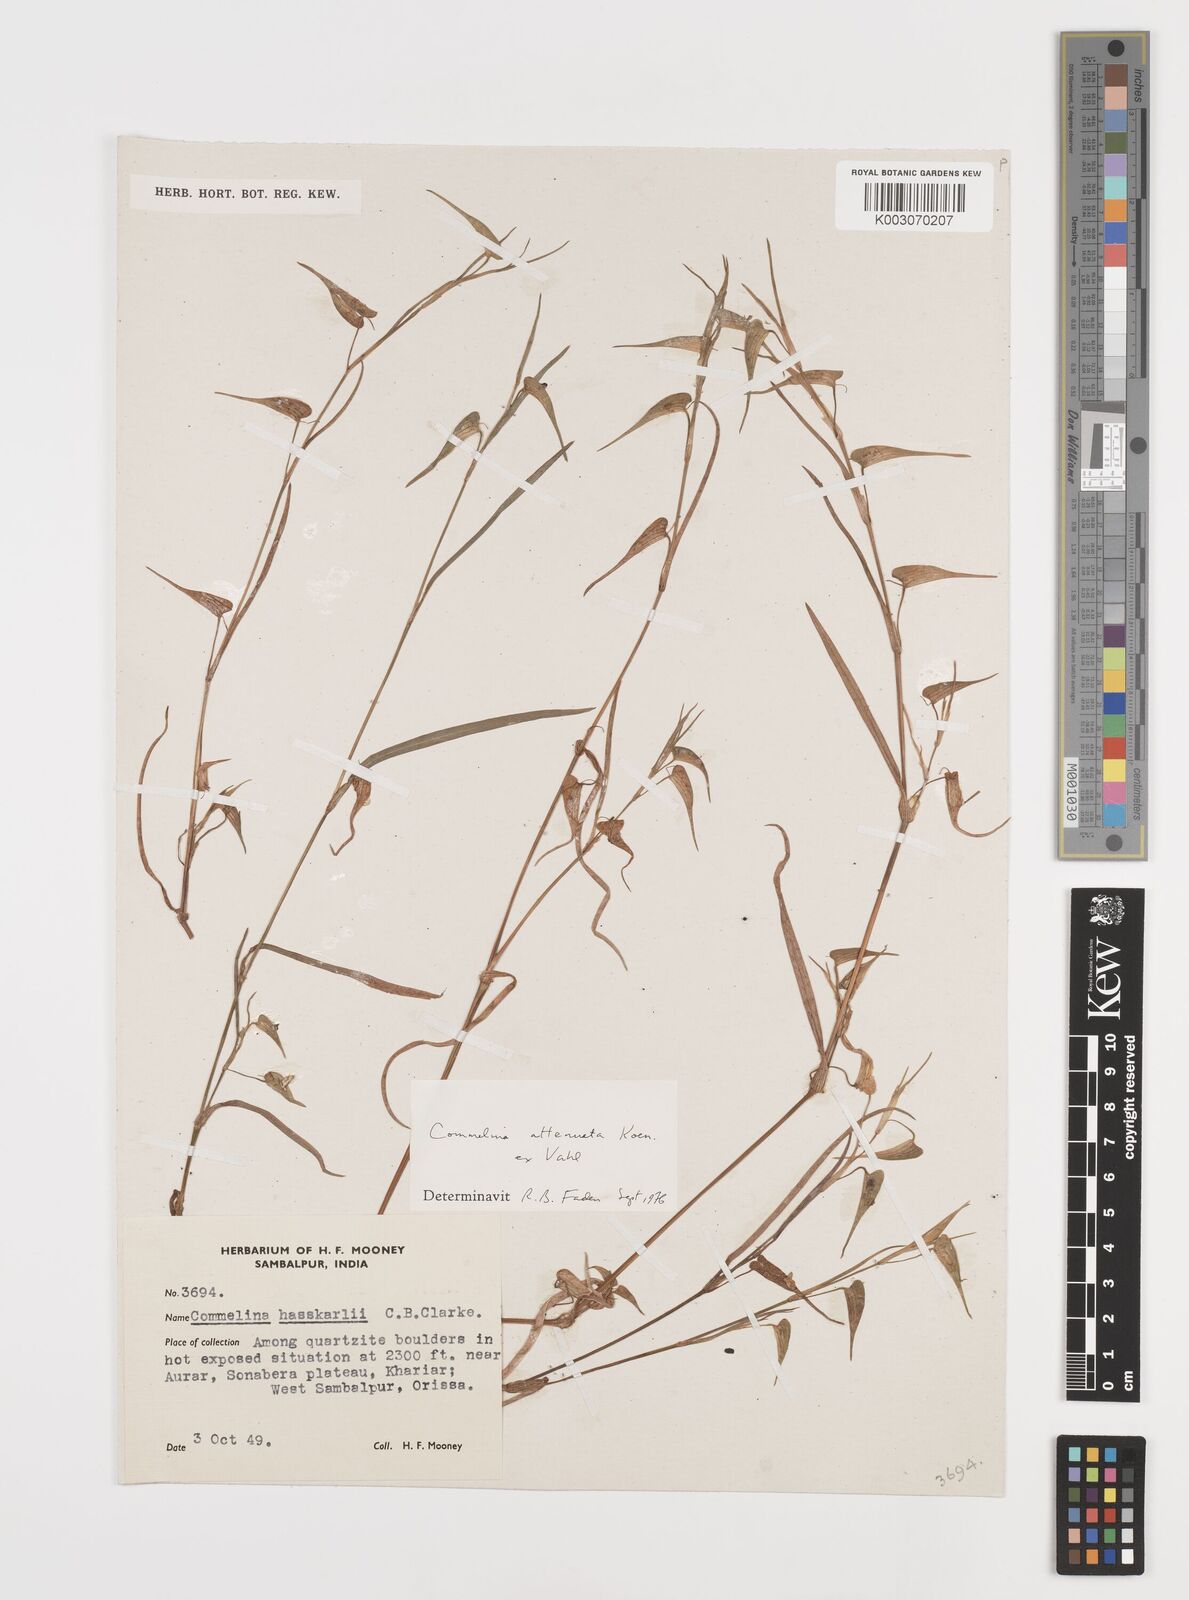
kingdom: Plantae
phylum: Tracheophyta
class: Liliopsida
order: Commelinales
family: Commelinaceae
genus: Commelina
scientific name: Commelina attenuata
